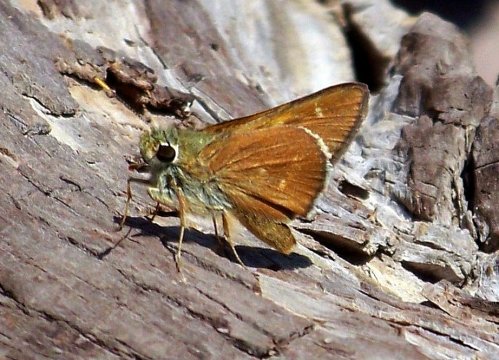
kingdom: Animalia
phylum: Arthropoda
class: Insecta
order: Lepidoptera
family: Hesperiidae
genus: Ochlodes
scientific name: Ochlodes snowi
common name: Snow's Skipper
